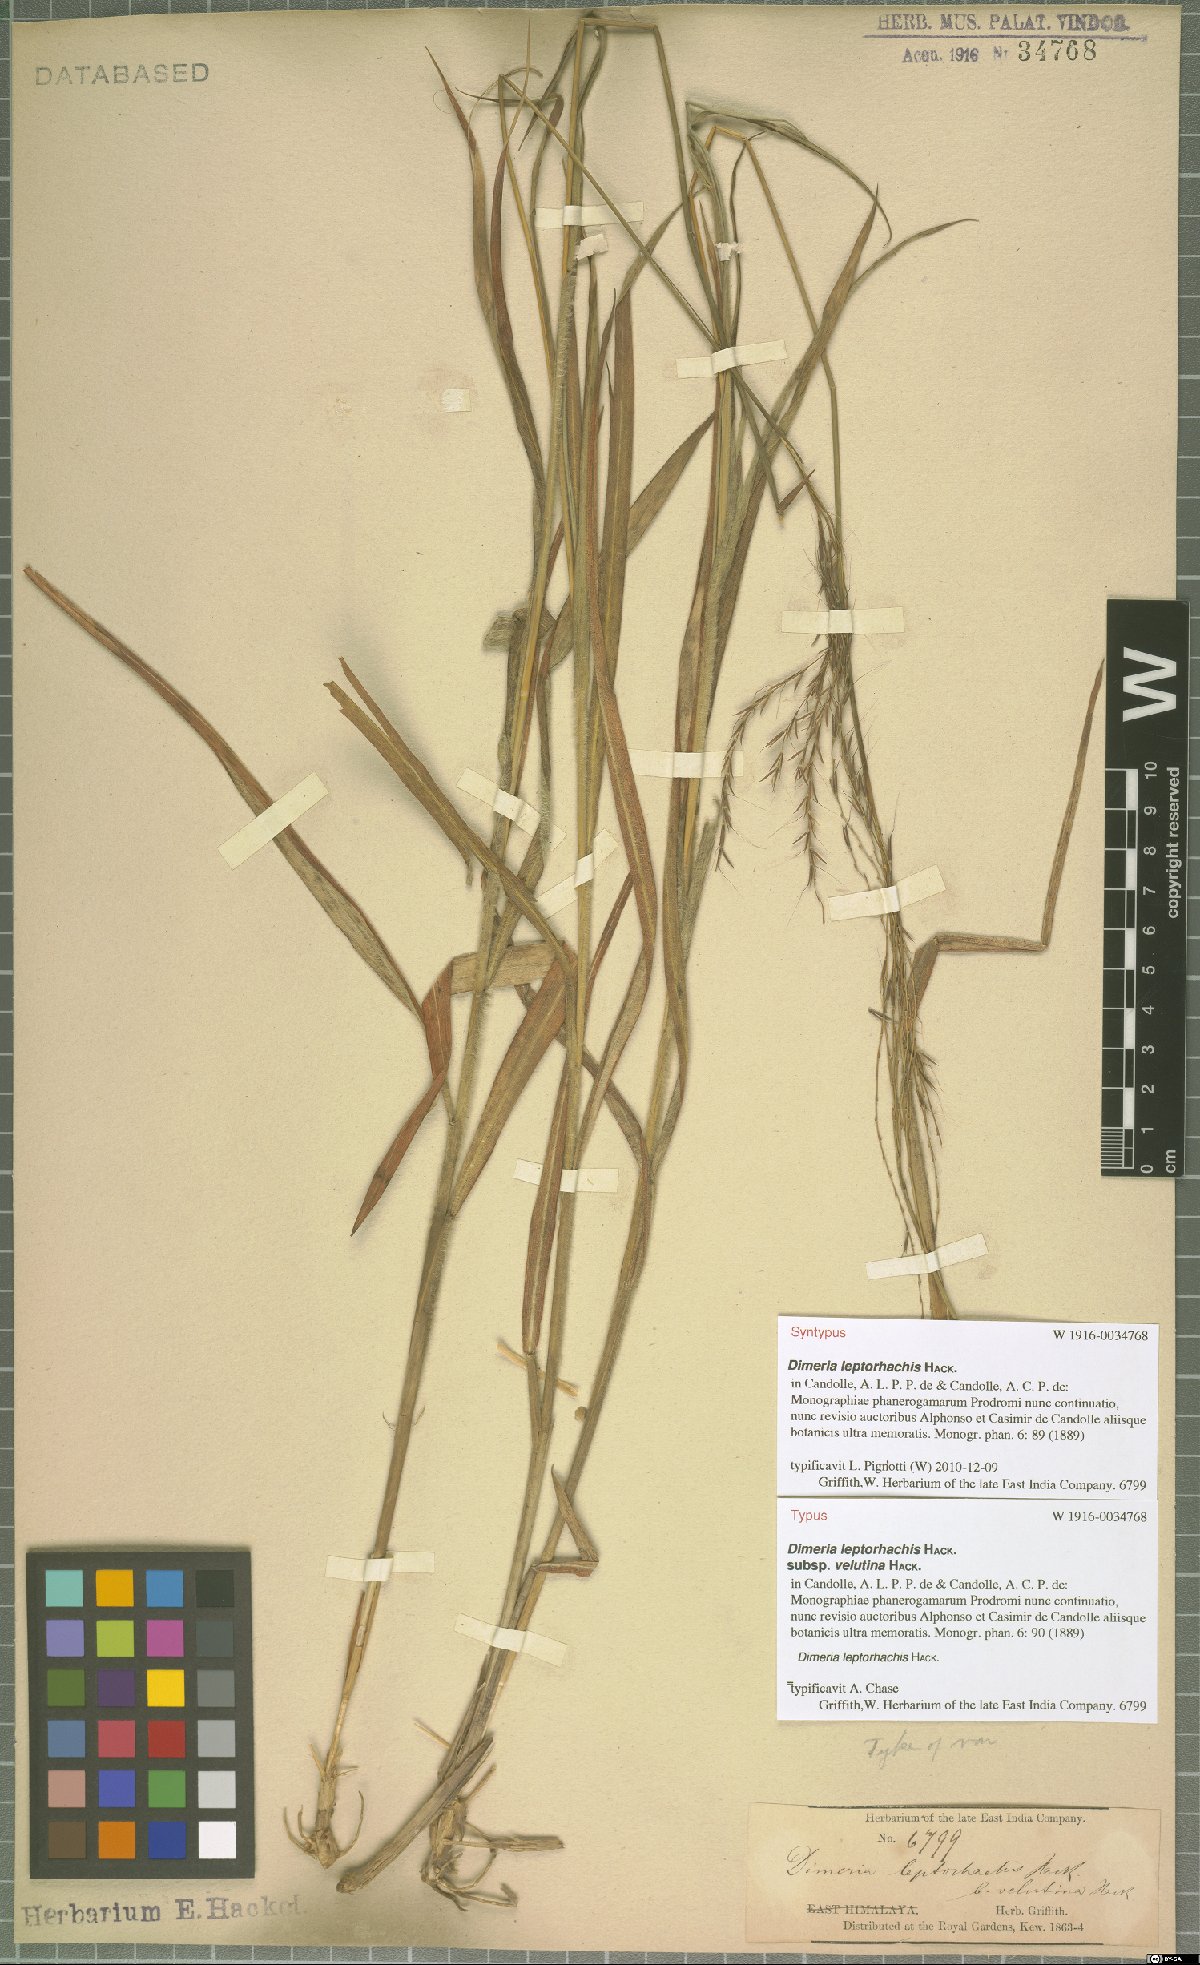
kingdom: Plantae
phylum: Tracheophyta
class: Liliopsida
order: Poales
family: Poaceae
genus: Dimeria
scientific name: Dimeria gracilis
